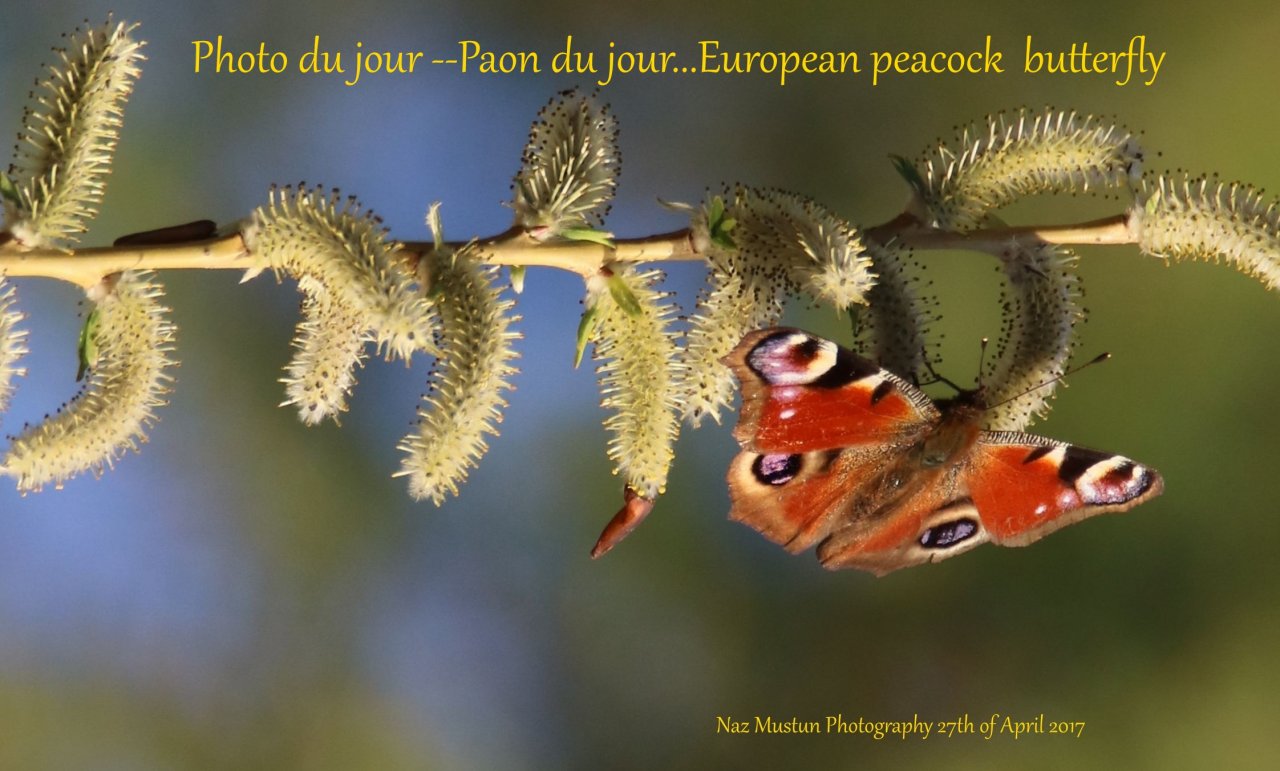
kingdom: Animalia
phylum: Arthropoda
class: Insecta
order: Lepidoptera
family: Nymphalidae
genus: Aglais
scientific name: Aglais io
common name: European Peacock
